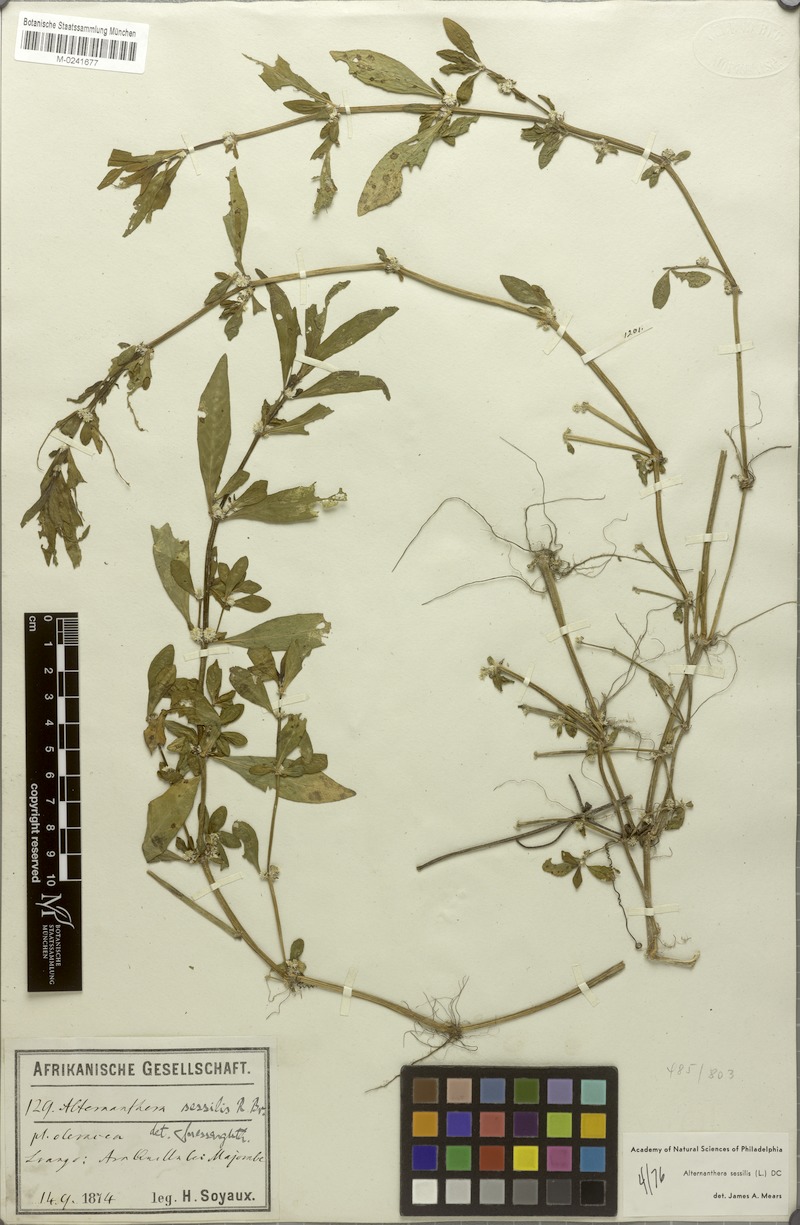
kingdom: Plantae
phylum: Tracheophyta
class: Magnoliopsida
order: Caryophyllales
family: Amaranthaceae
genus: Alternanthera
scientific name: Alternanthera sessilis
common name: Sessile joyweed
